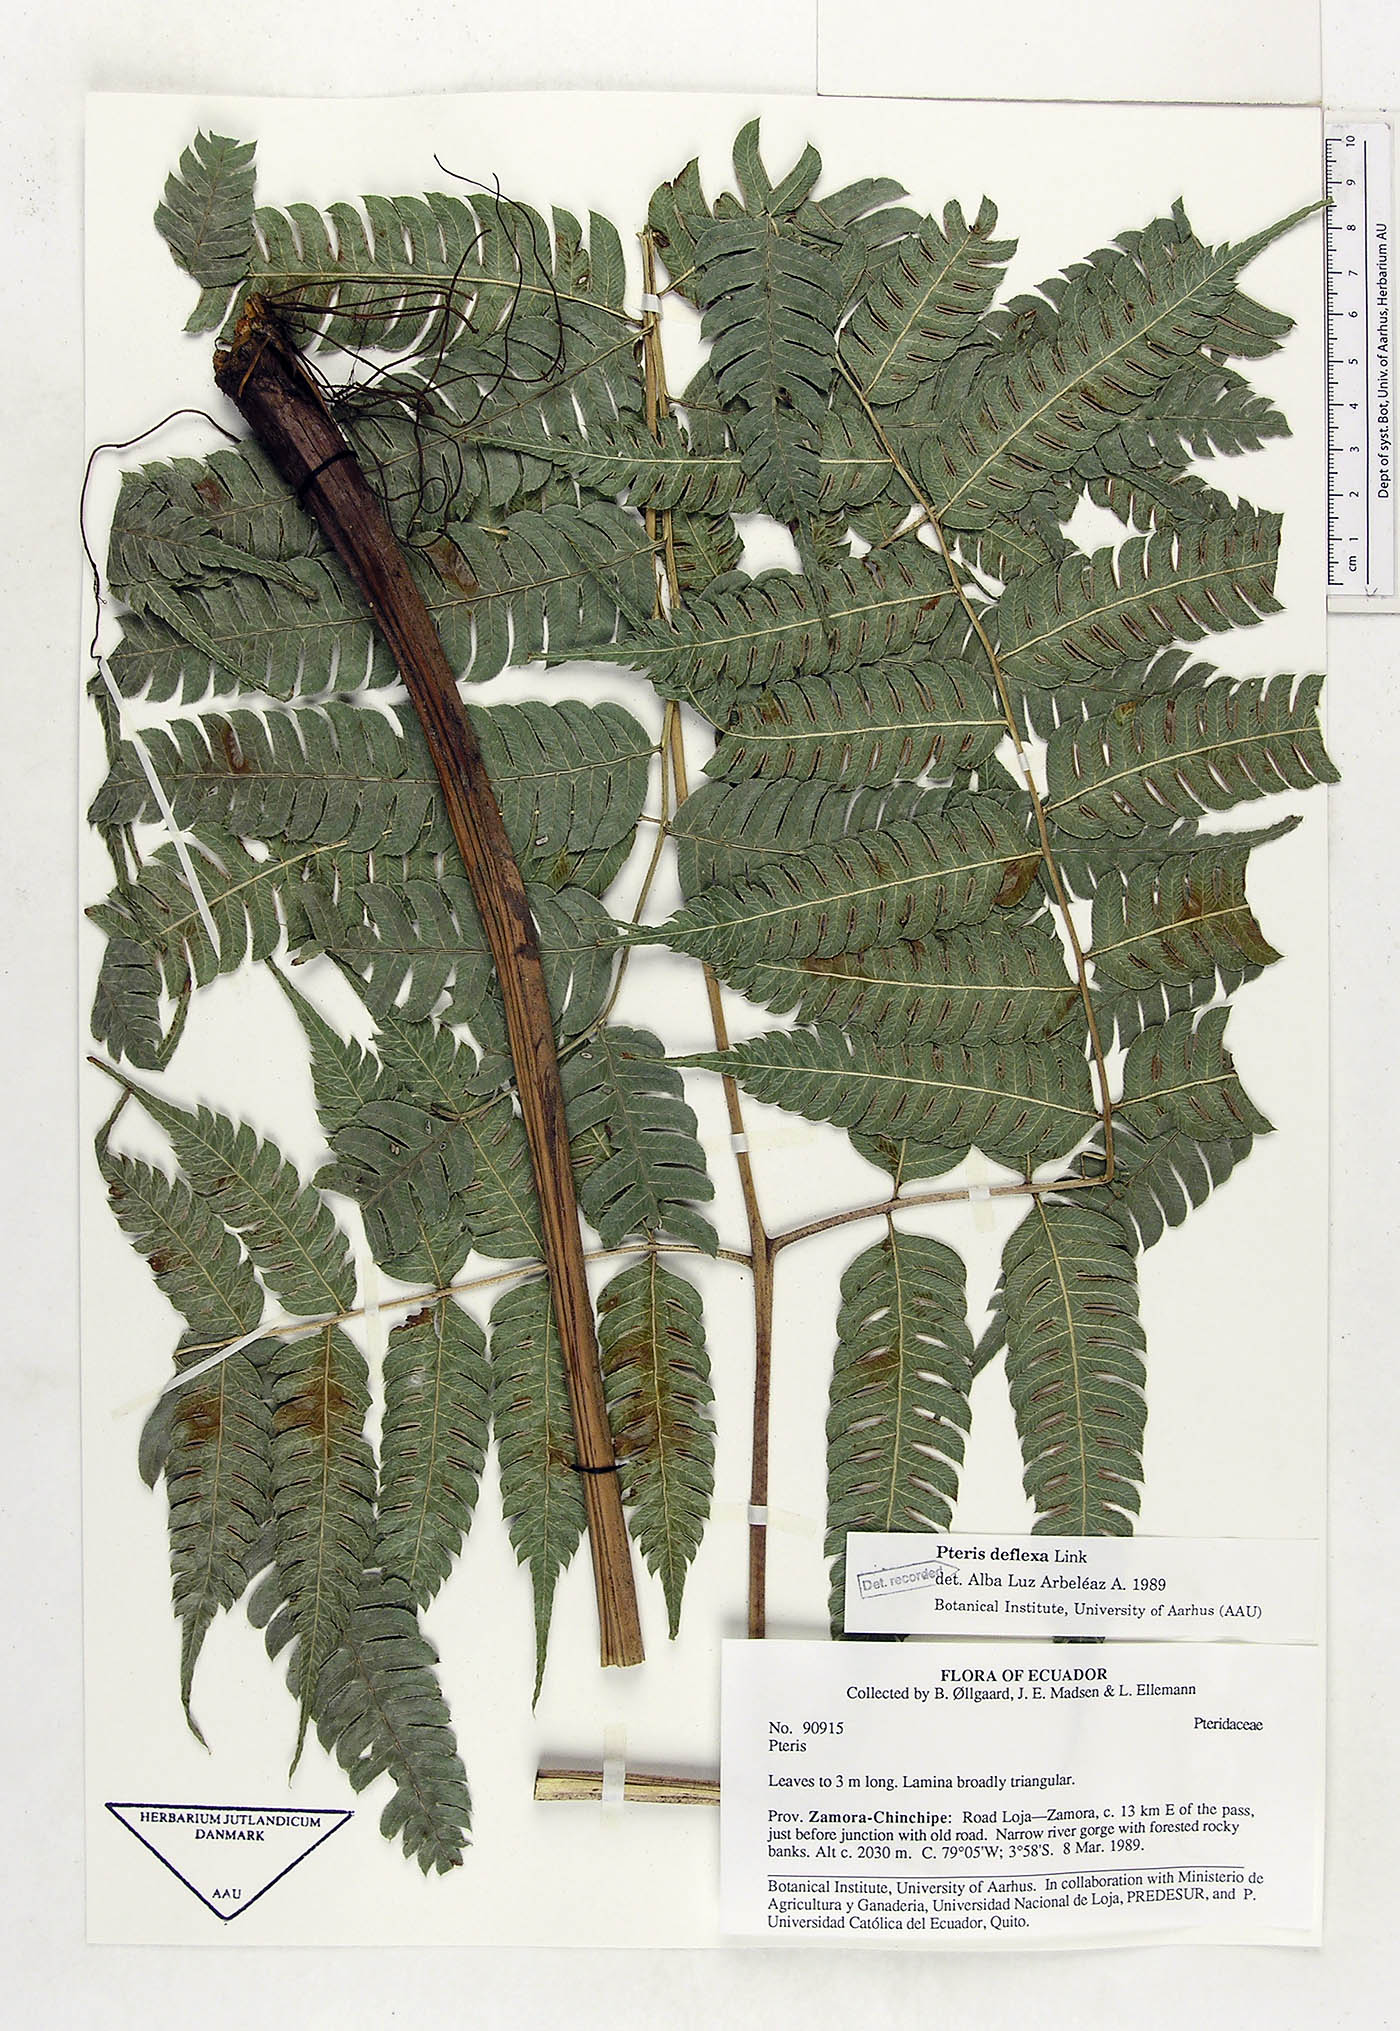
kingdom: Plantae
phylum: Tracheophyta
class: Polypodiopsida
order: Polypodiales
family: Pteridaceae
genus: Pteris
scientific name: Pteris deflexa
